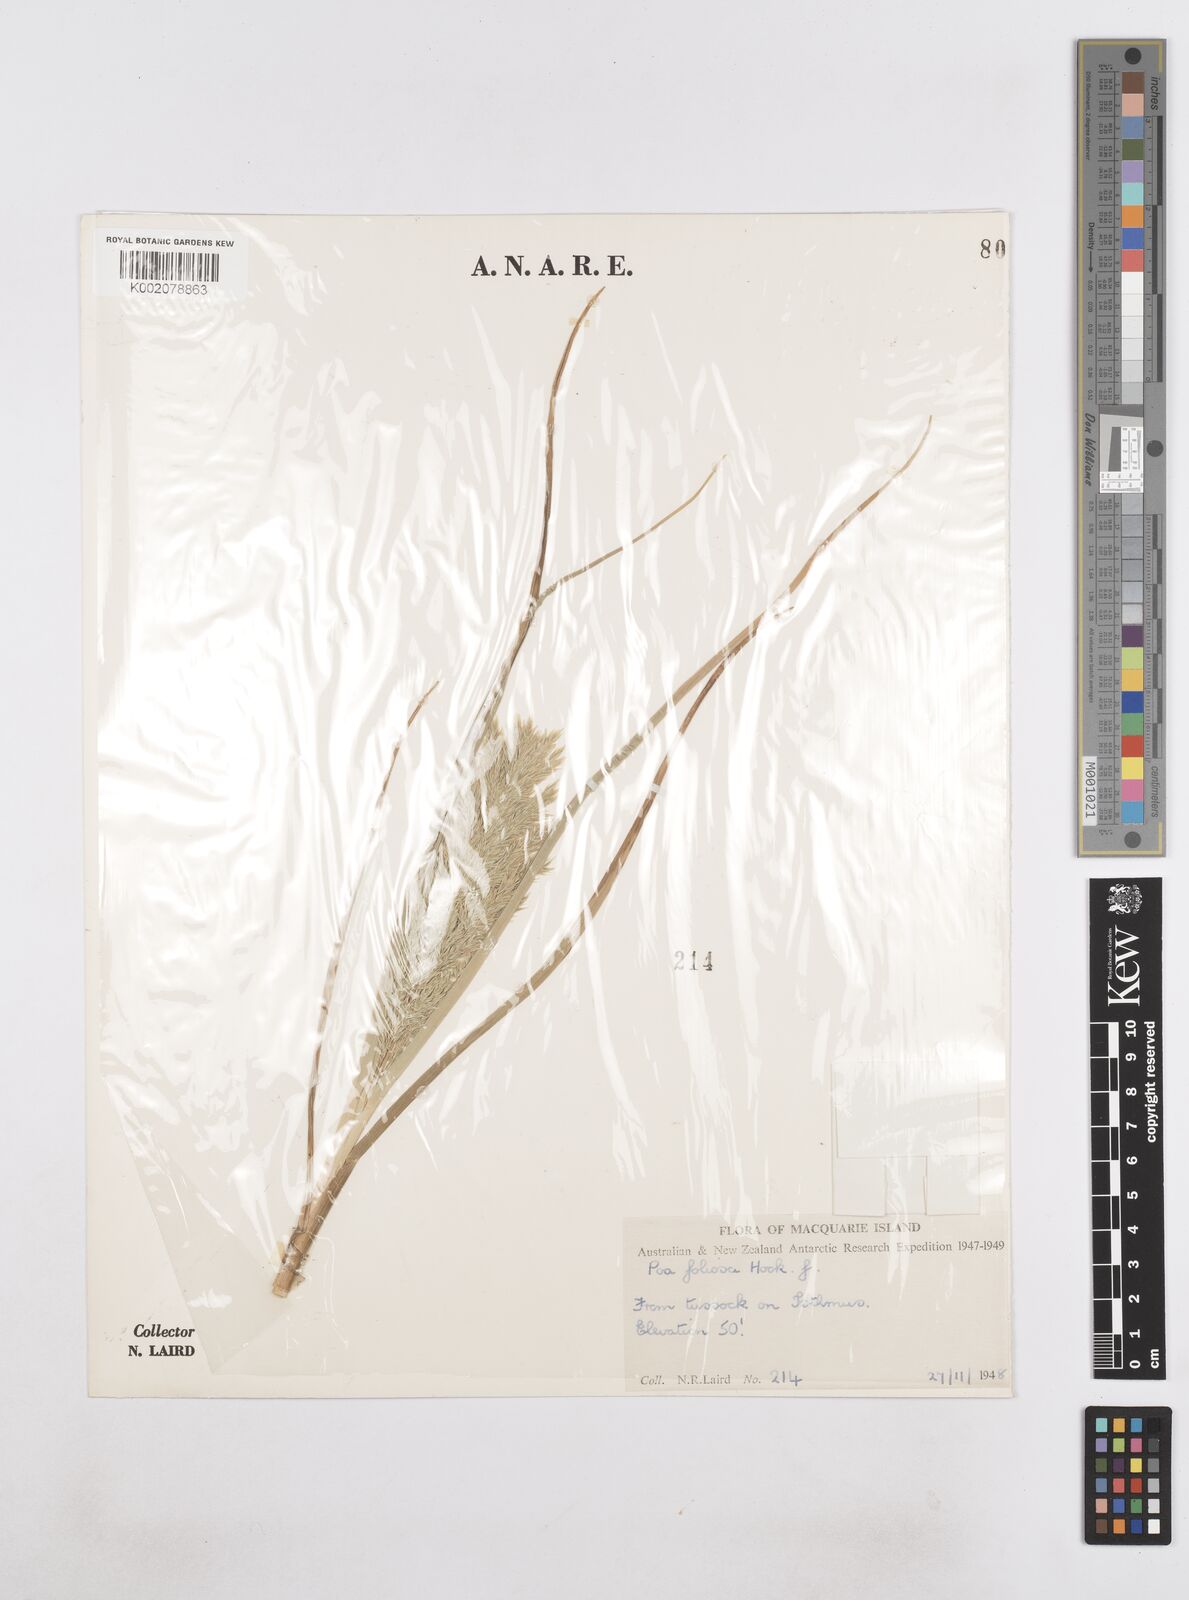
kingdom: Plantae
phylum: Tracheophyta
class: Liliopsida
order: Poales
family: Poaceae
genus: Poa
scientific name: Poa foliosa
